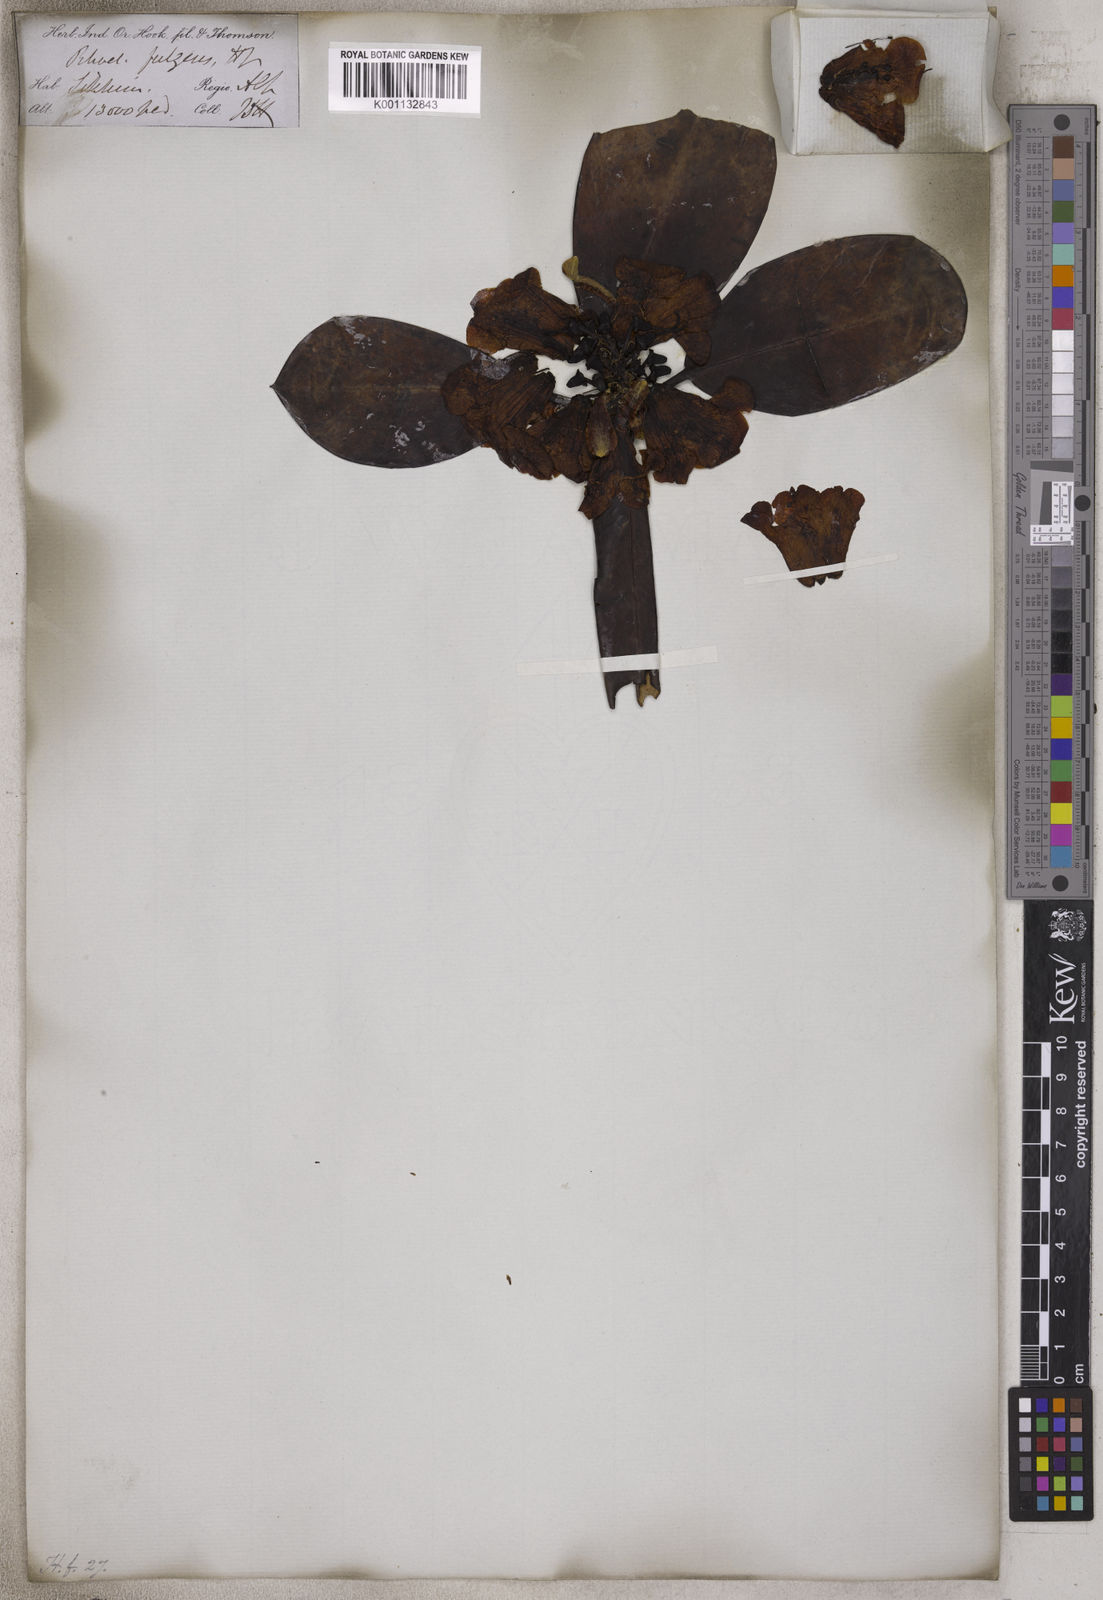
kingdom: Plantae
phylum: Tracheophyta
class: Magnoliopsida
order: Ericales
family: Ericaceae
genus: Rhododendron
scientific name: Rhododendron fulgens
